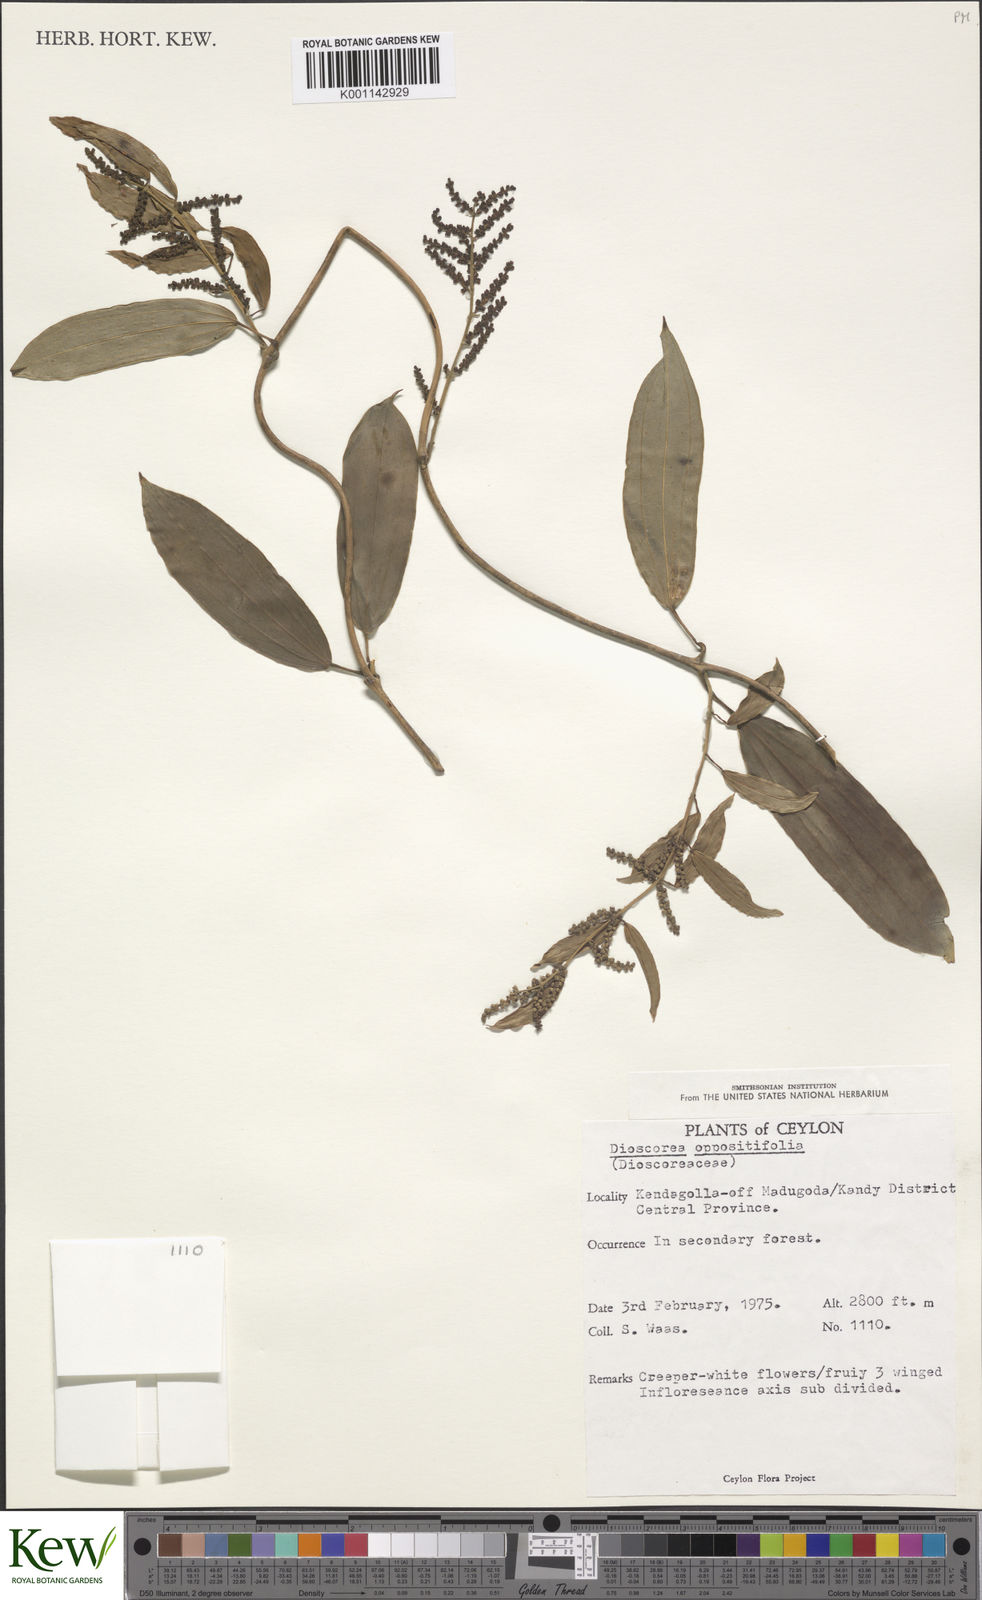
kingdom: Plantae
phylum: Tracheophyta
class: Liliopsida
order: Dioscoreales
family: Dioscoreaceae
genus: Dioscorea
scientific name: Dioscorea oppositifolia
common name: Chinese yam
